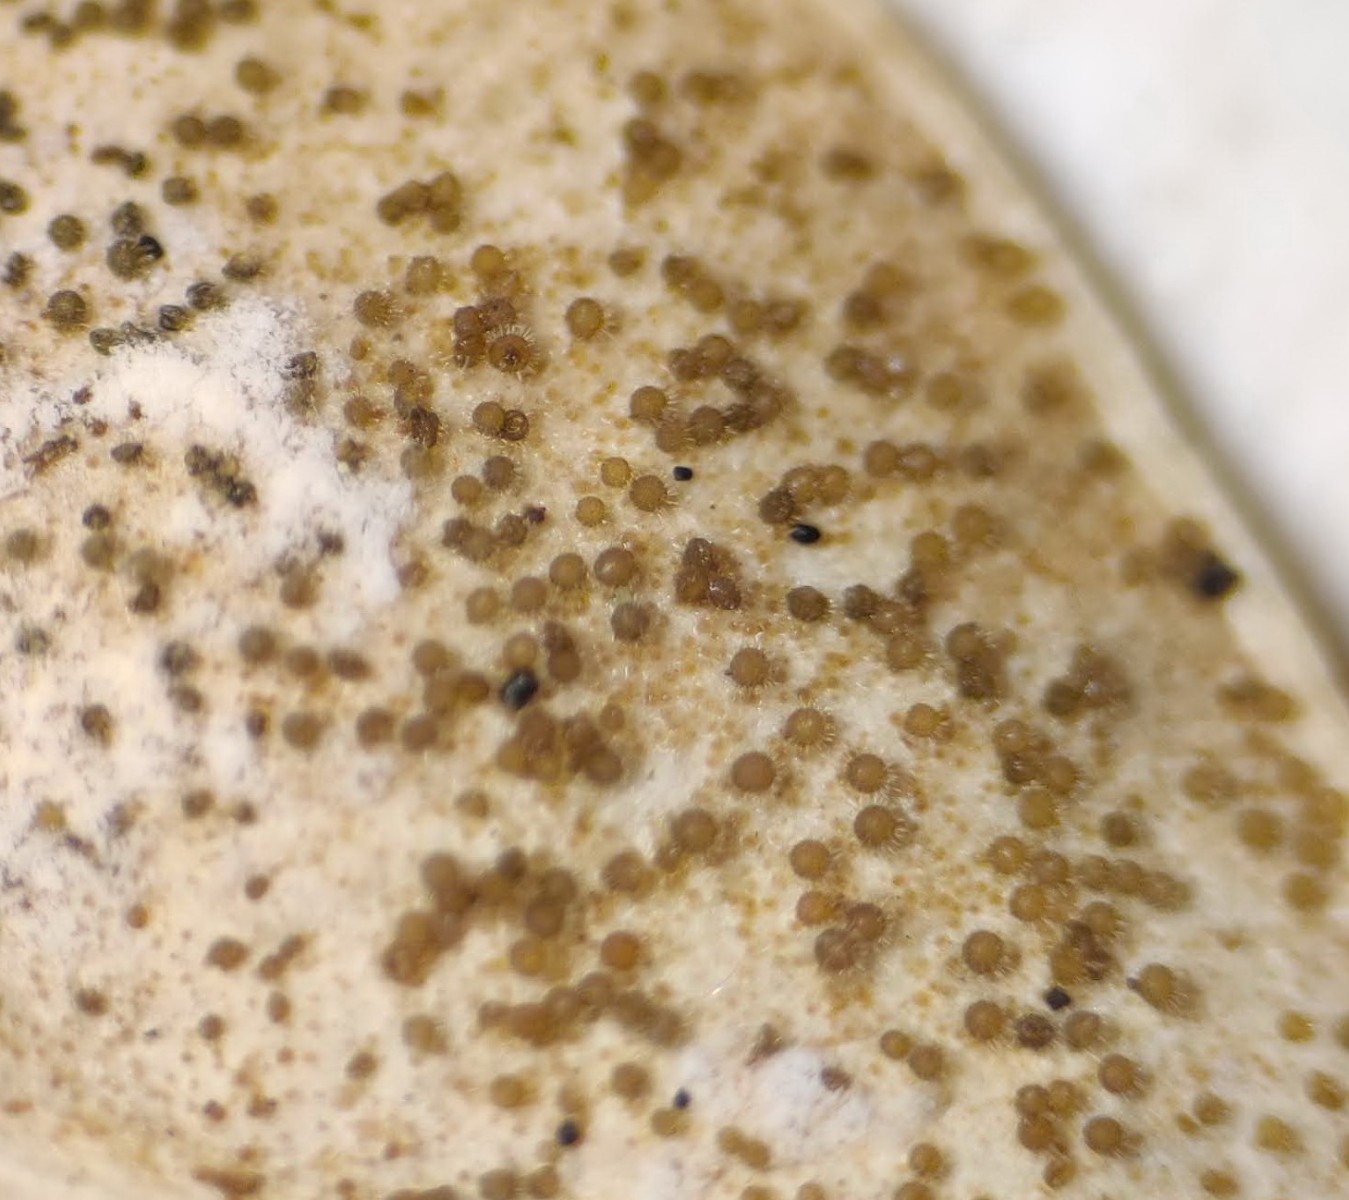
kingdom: Fungi
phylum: Ascomycota
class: Sordariomycetes
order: Hypocreales
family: Nectriaceae
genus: Pseudonectria
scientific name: Pseudonectria buxi
